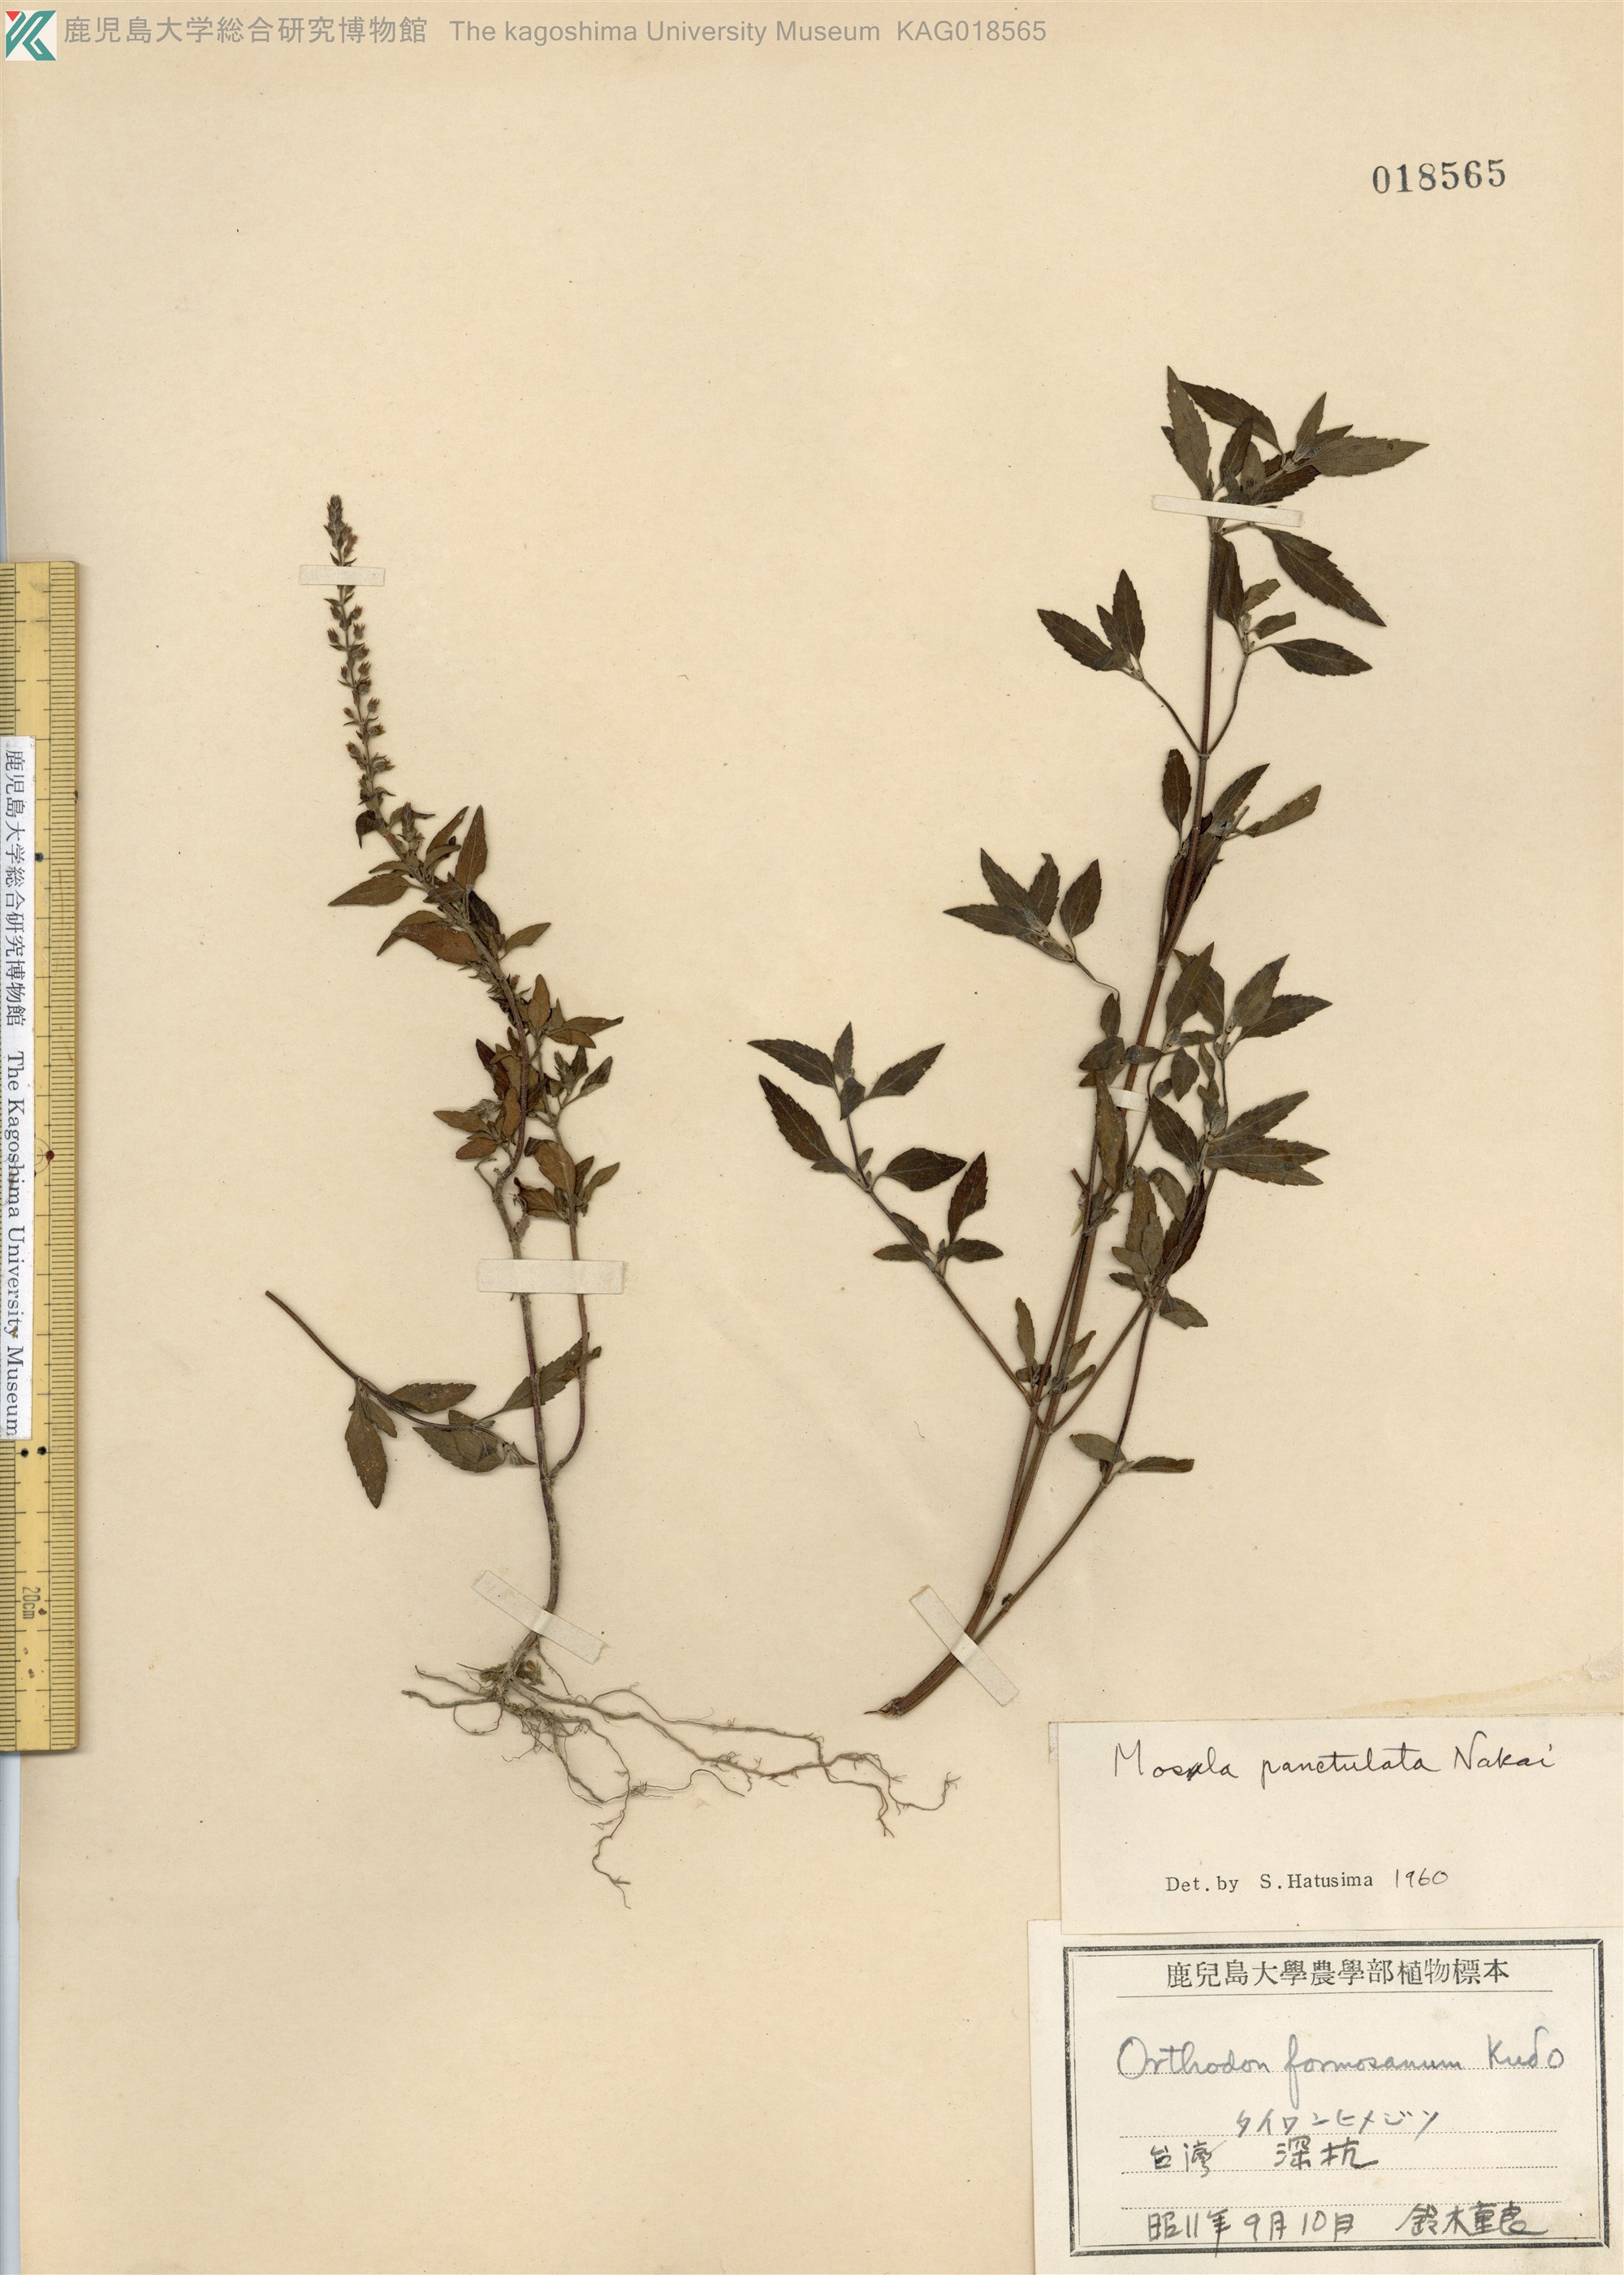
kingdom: Plantae
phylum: Tracheophyta
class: Magnoliopsida
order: Lamiales
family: Lamiaceae
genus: Mosla
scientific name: Mosla scabra
